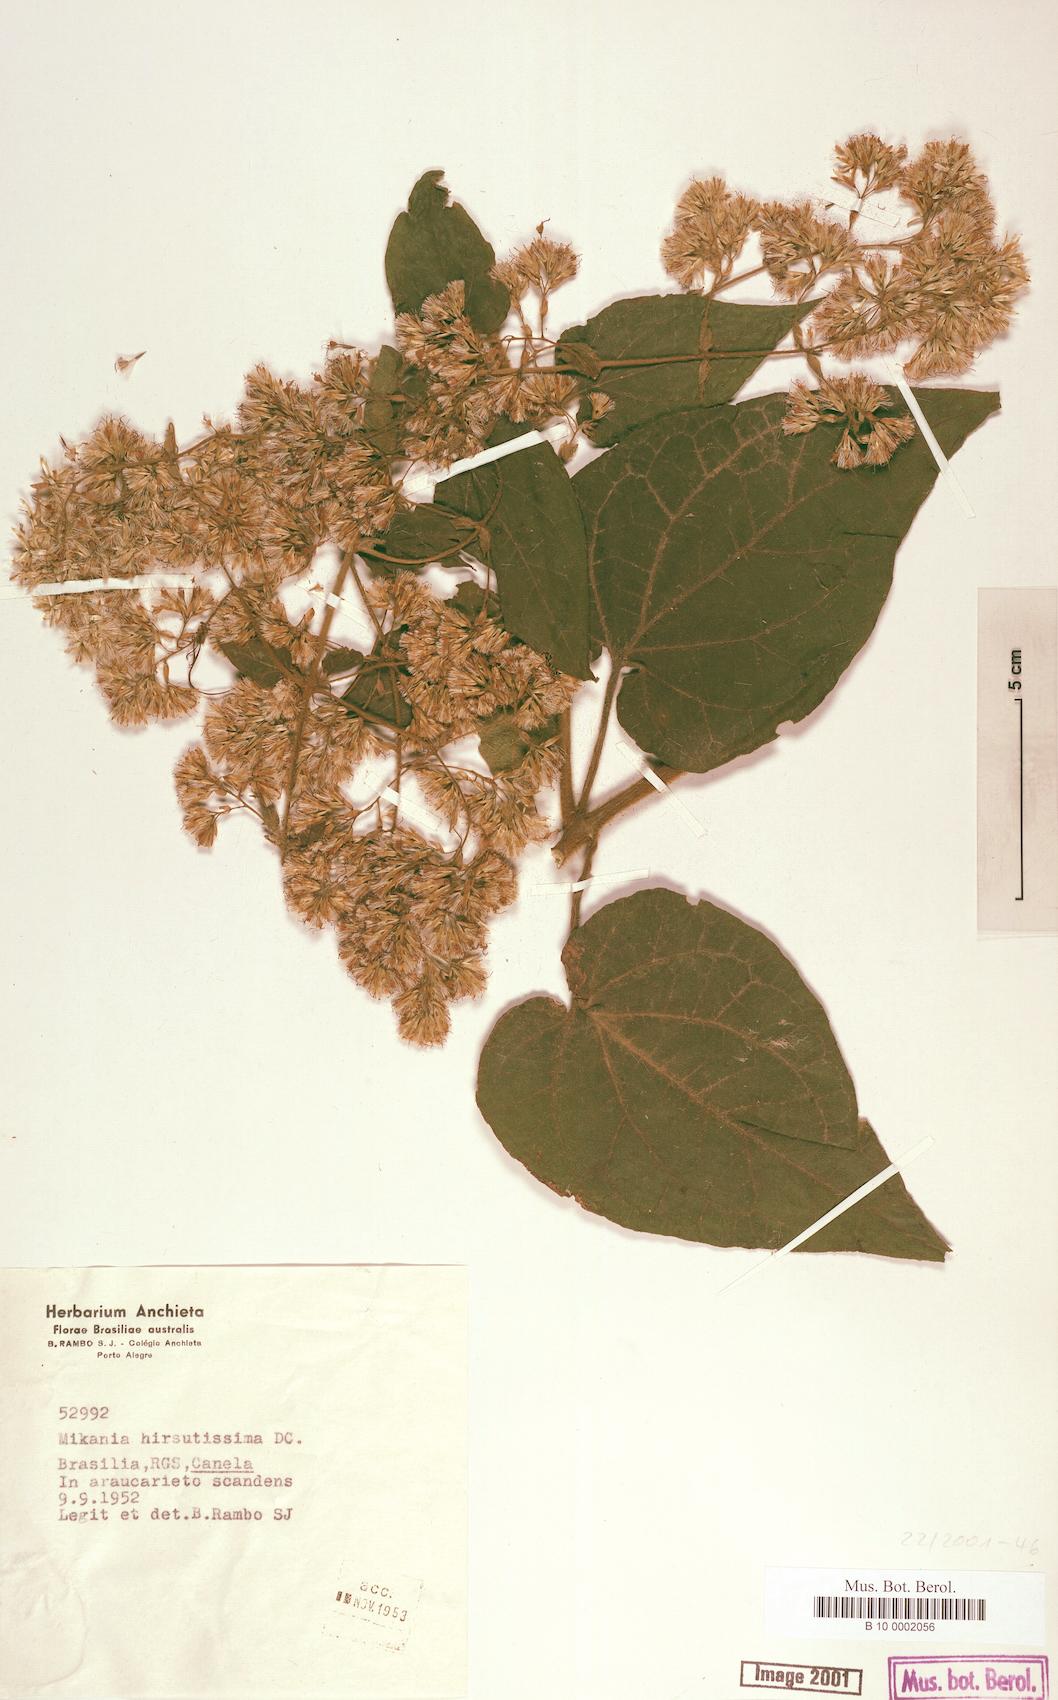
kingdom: Plantae
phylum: Tracheophyta
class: Magnoliopsida
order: Asterales
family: Asteraceae
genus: Mikania
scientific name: Mikania banisteriae
